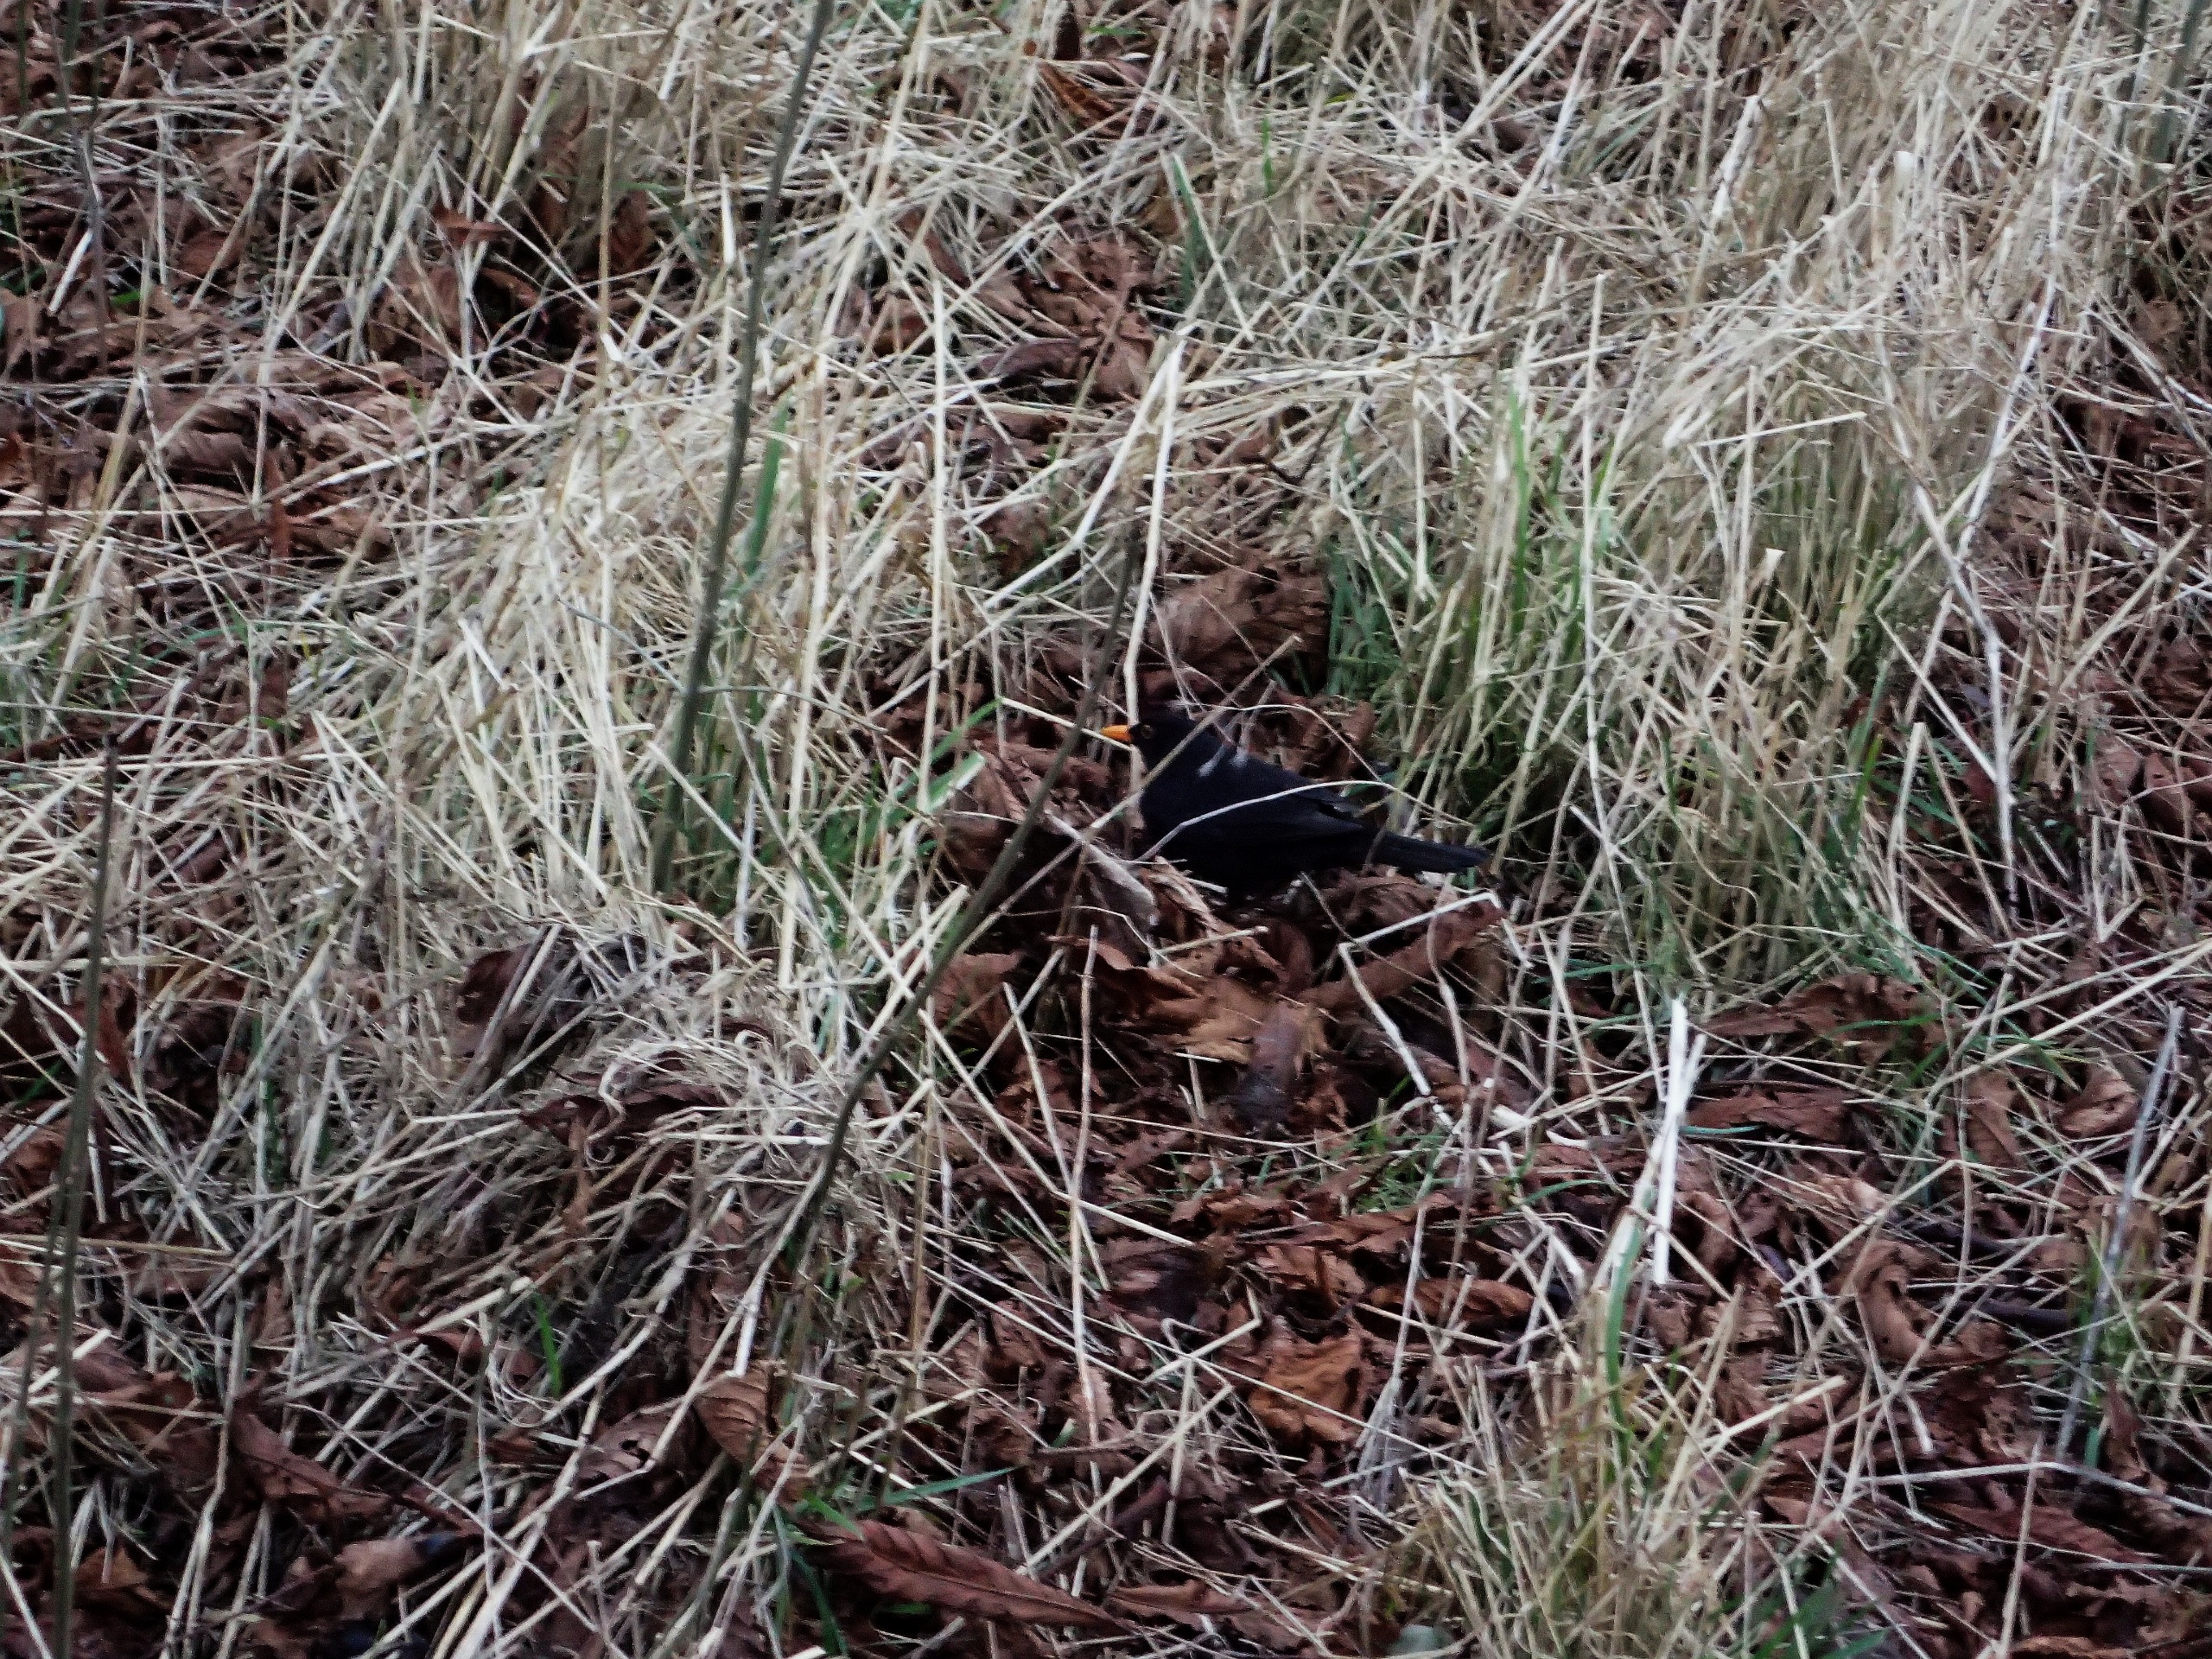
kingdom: Animalia
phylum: Chordata
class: Aves
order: Passeriformes
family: Turdidae
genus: Turdus
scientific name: Turdus merula
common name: Solsort
